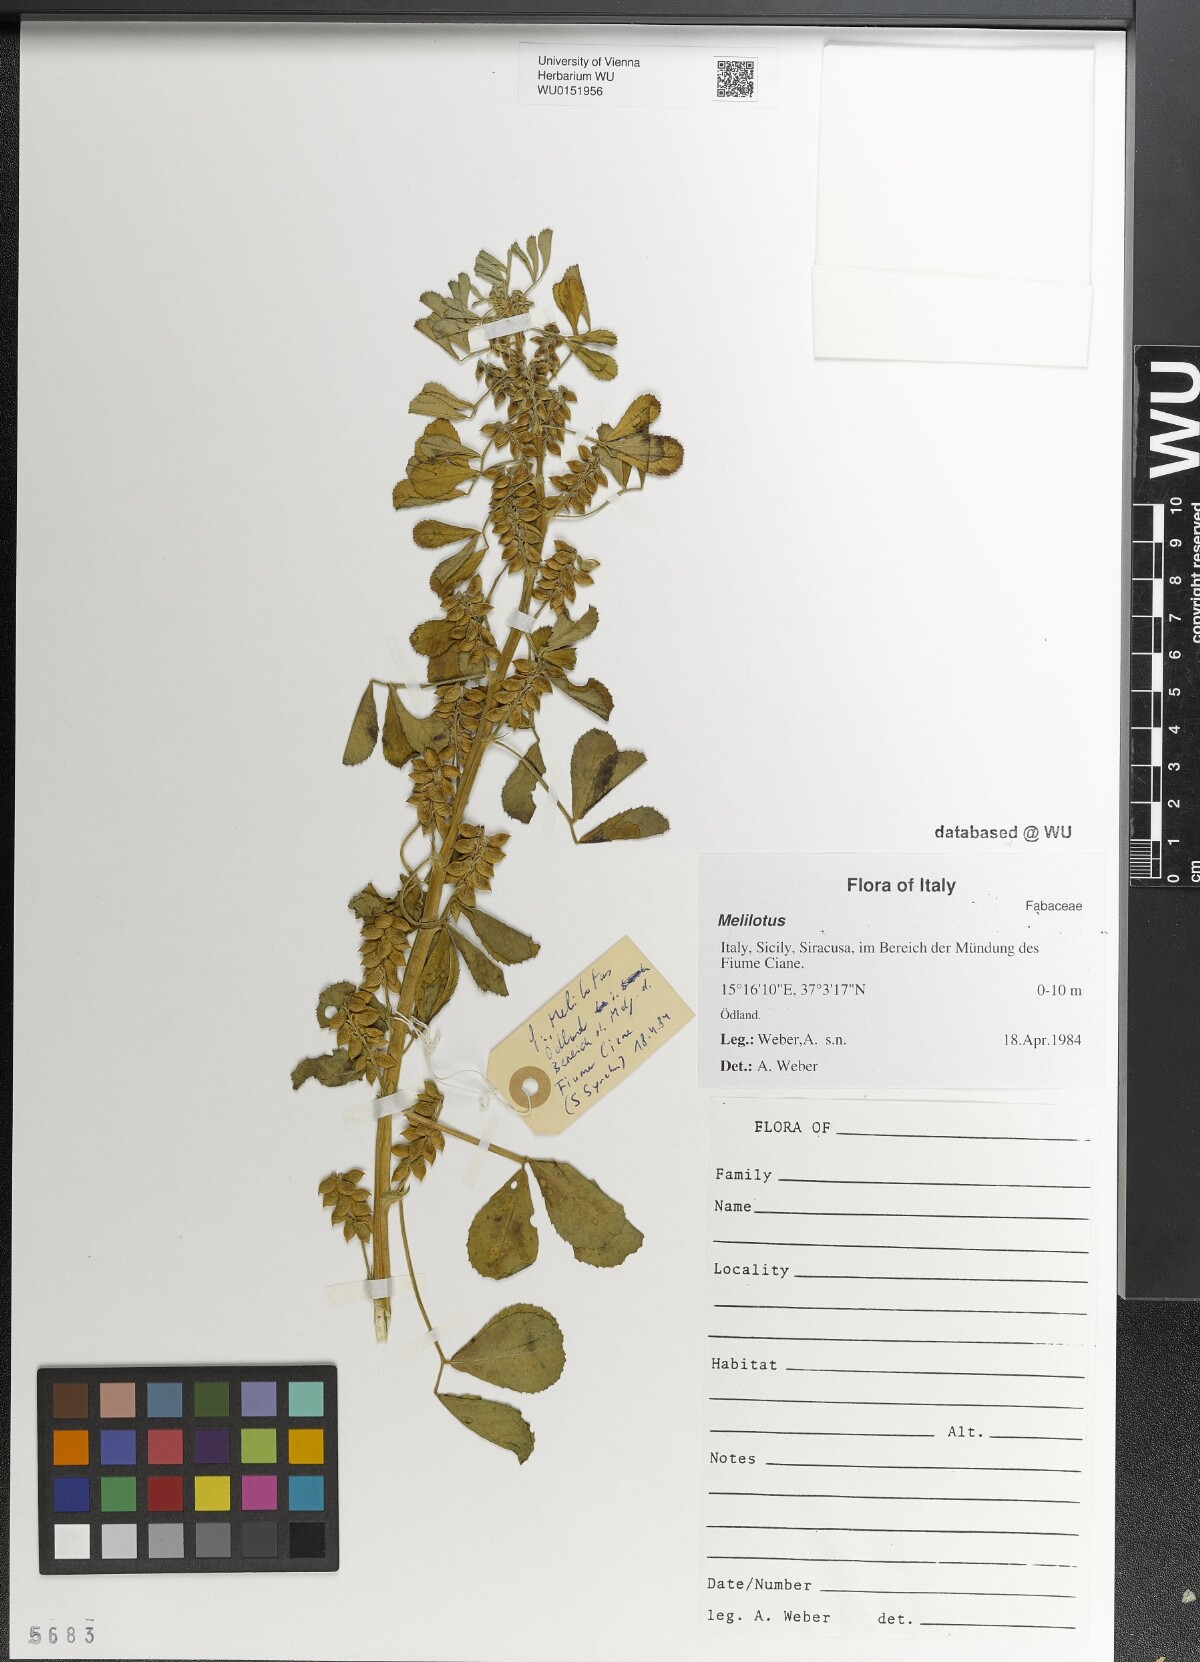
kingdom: Plantae
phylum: Tracheophyta
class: Magnoliopsida
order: Fabales
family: Fabaceae
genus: Melilotus
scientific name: Melilotus
